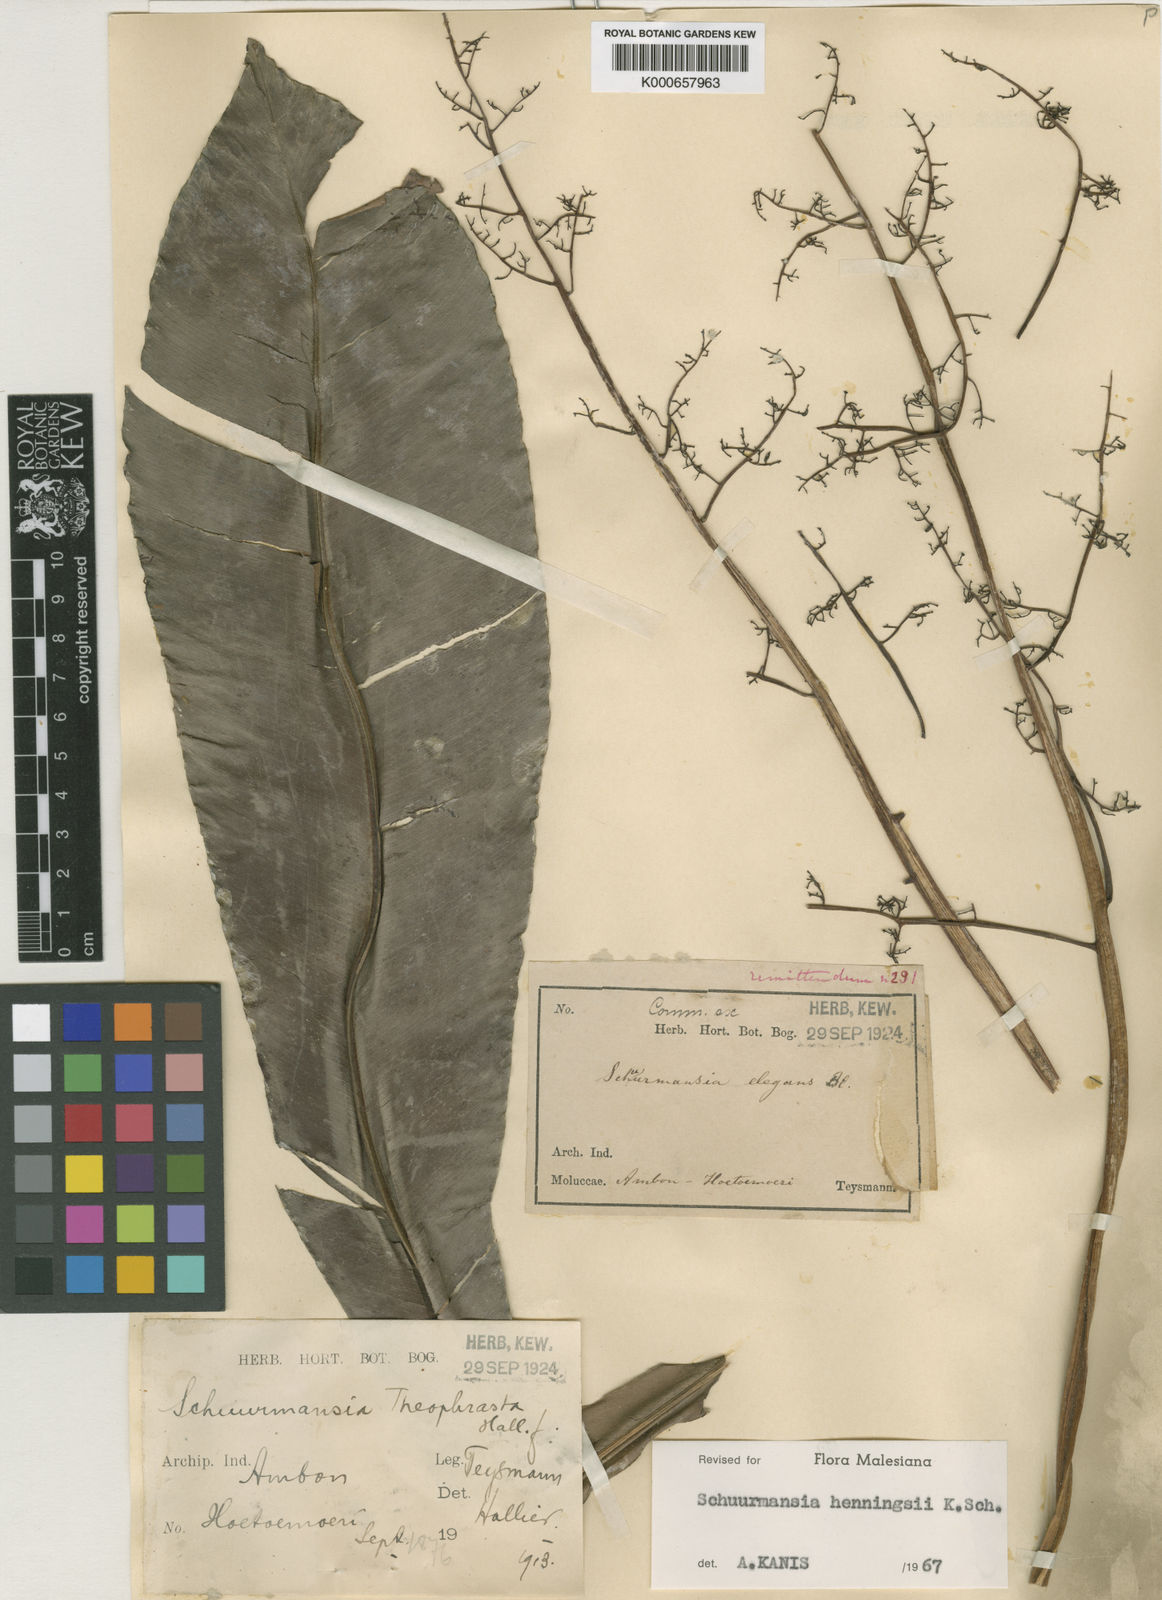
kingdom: Plantae
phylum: Tracheophyta
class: Magnoliopsida
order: Malpighiales
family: Ochnaceae
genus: Schuurmansia
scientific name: Schuurmansia henningsii
